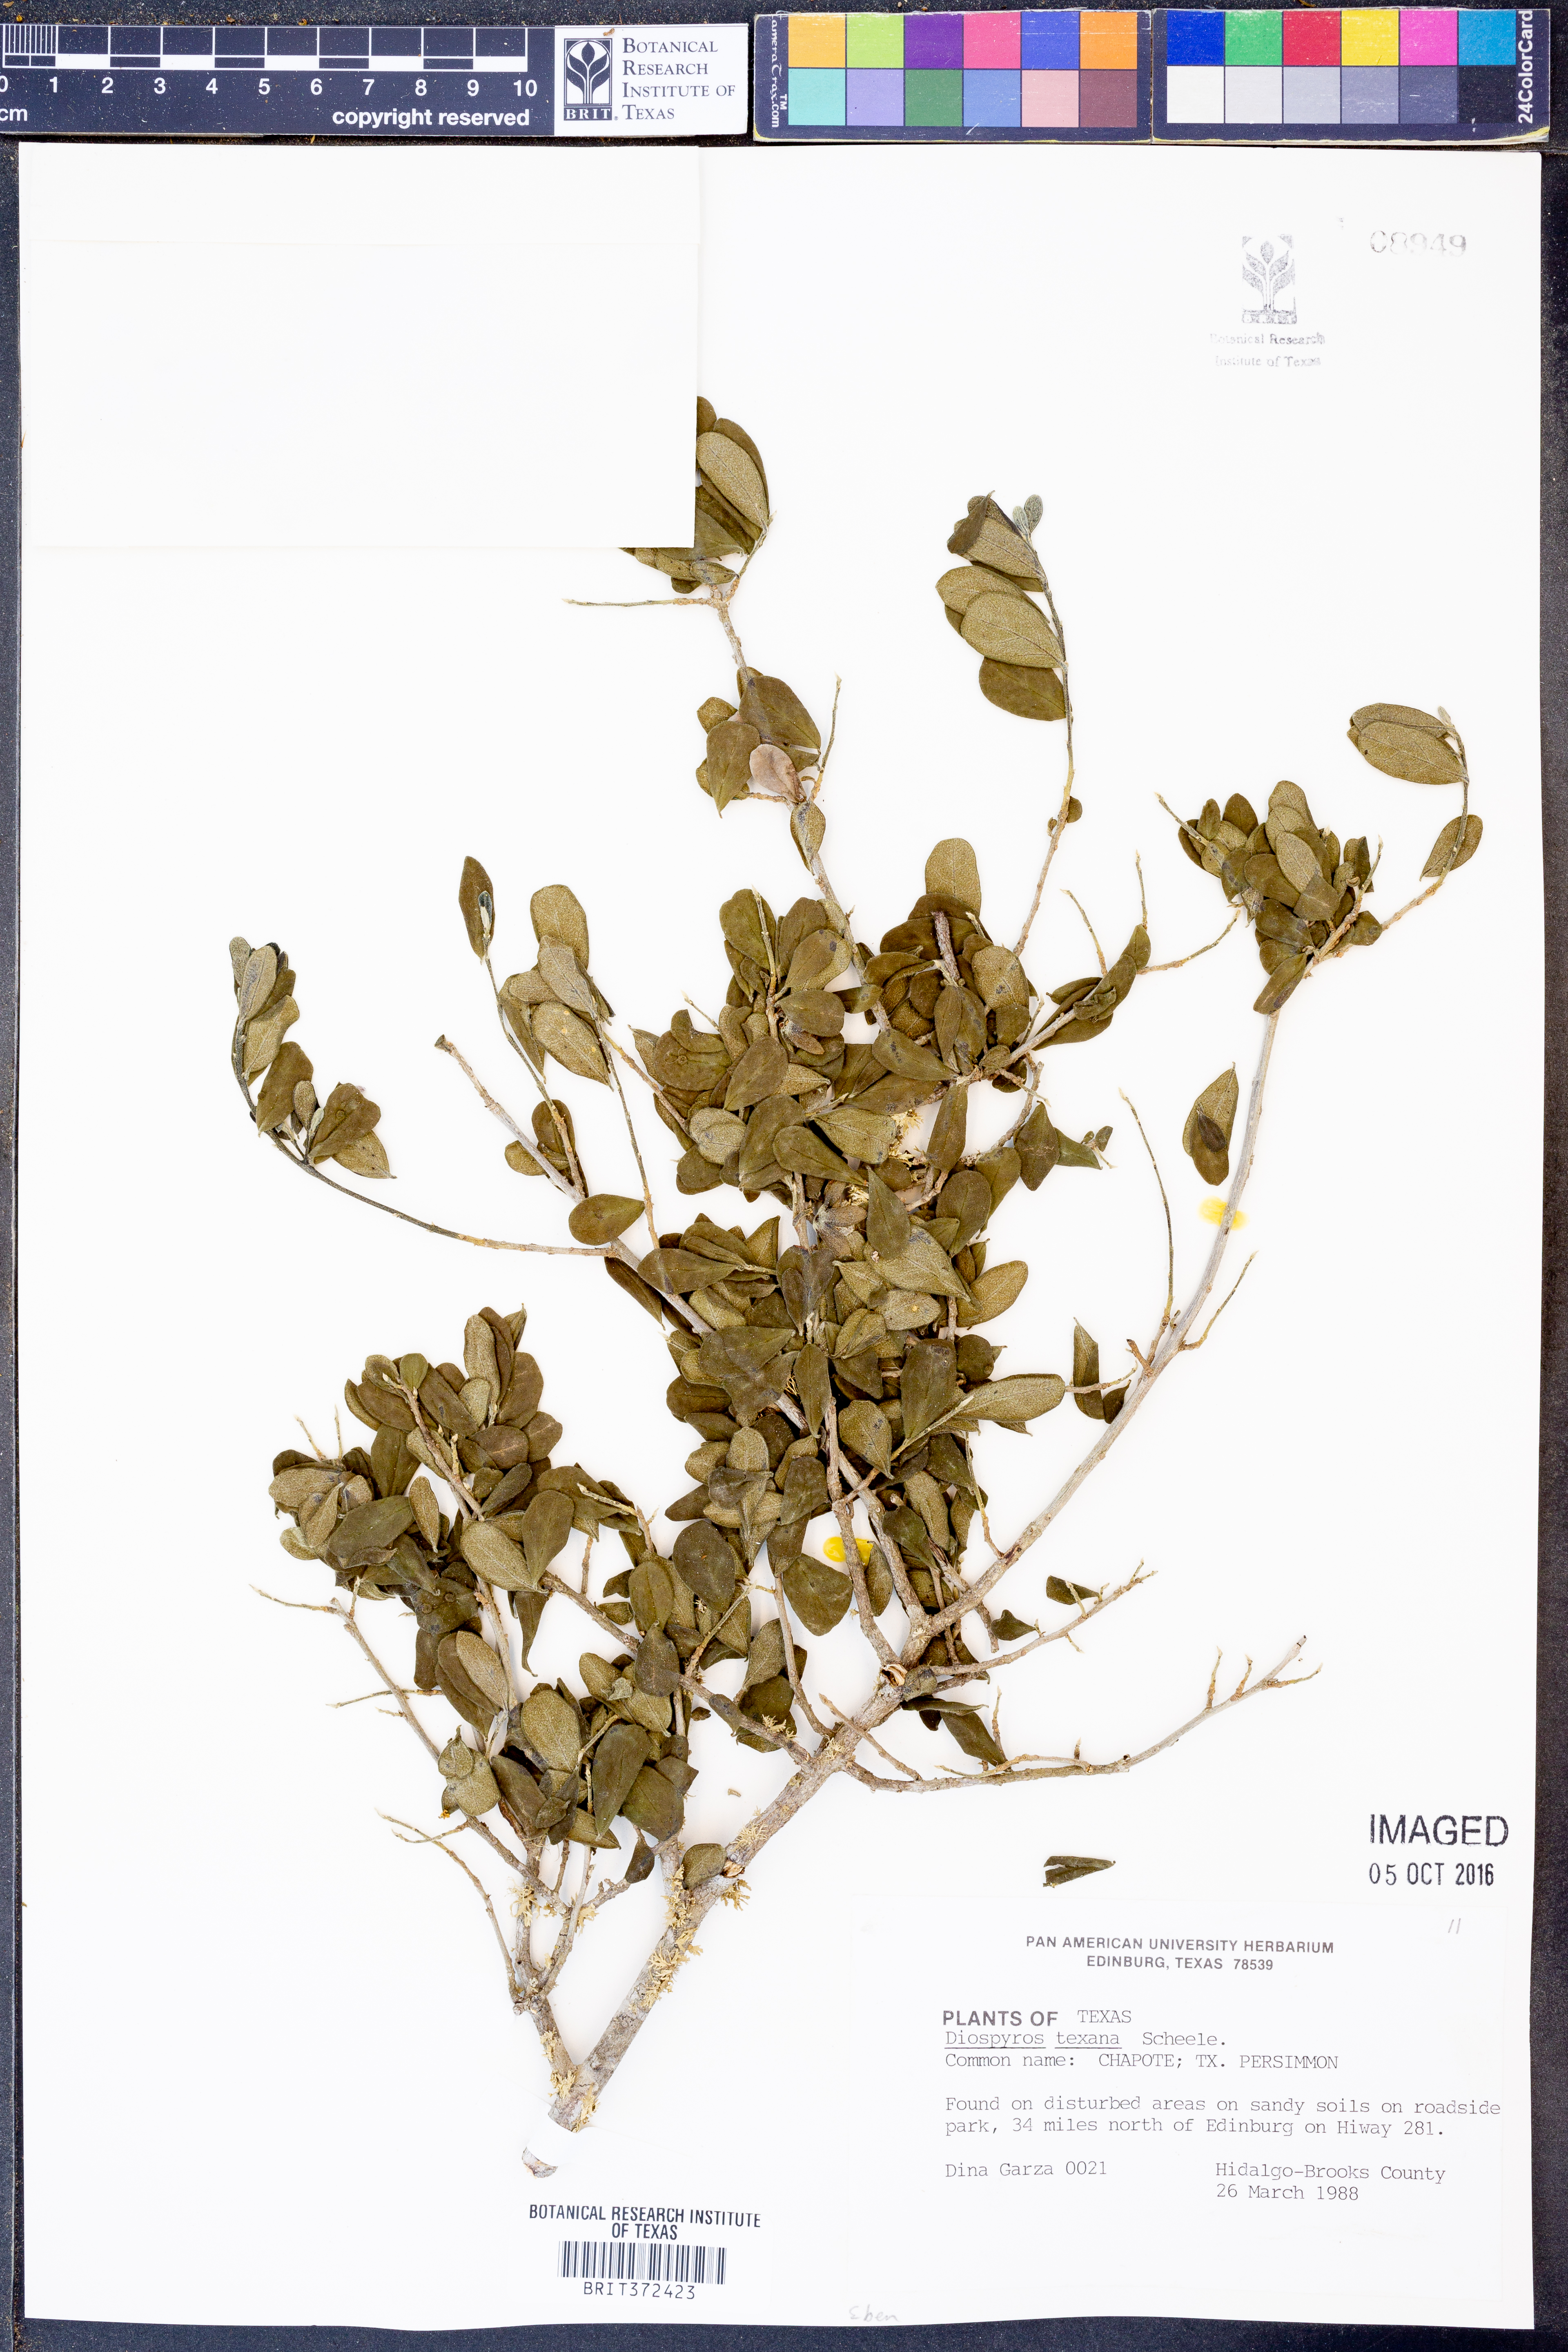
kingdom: Plantae
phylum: Tracheophyta
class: Magnoliopsida
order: Ericales
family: Ebenaceae
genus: Diospyros
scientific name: Diospyros texana
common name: Texas persimmon
